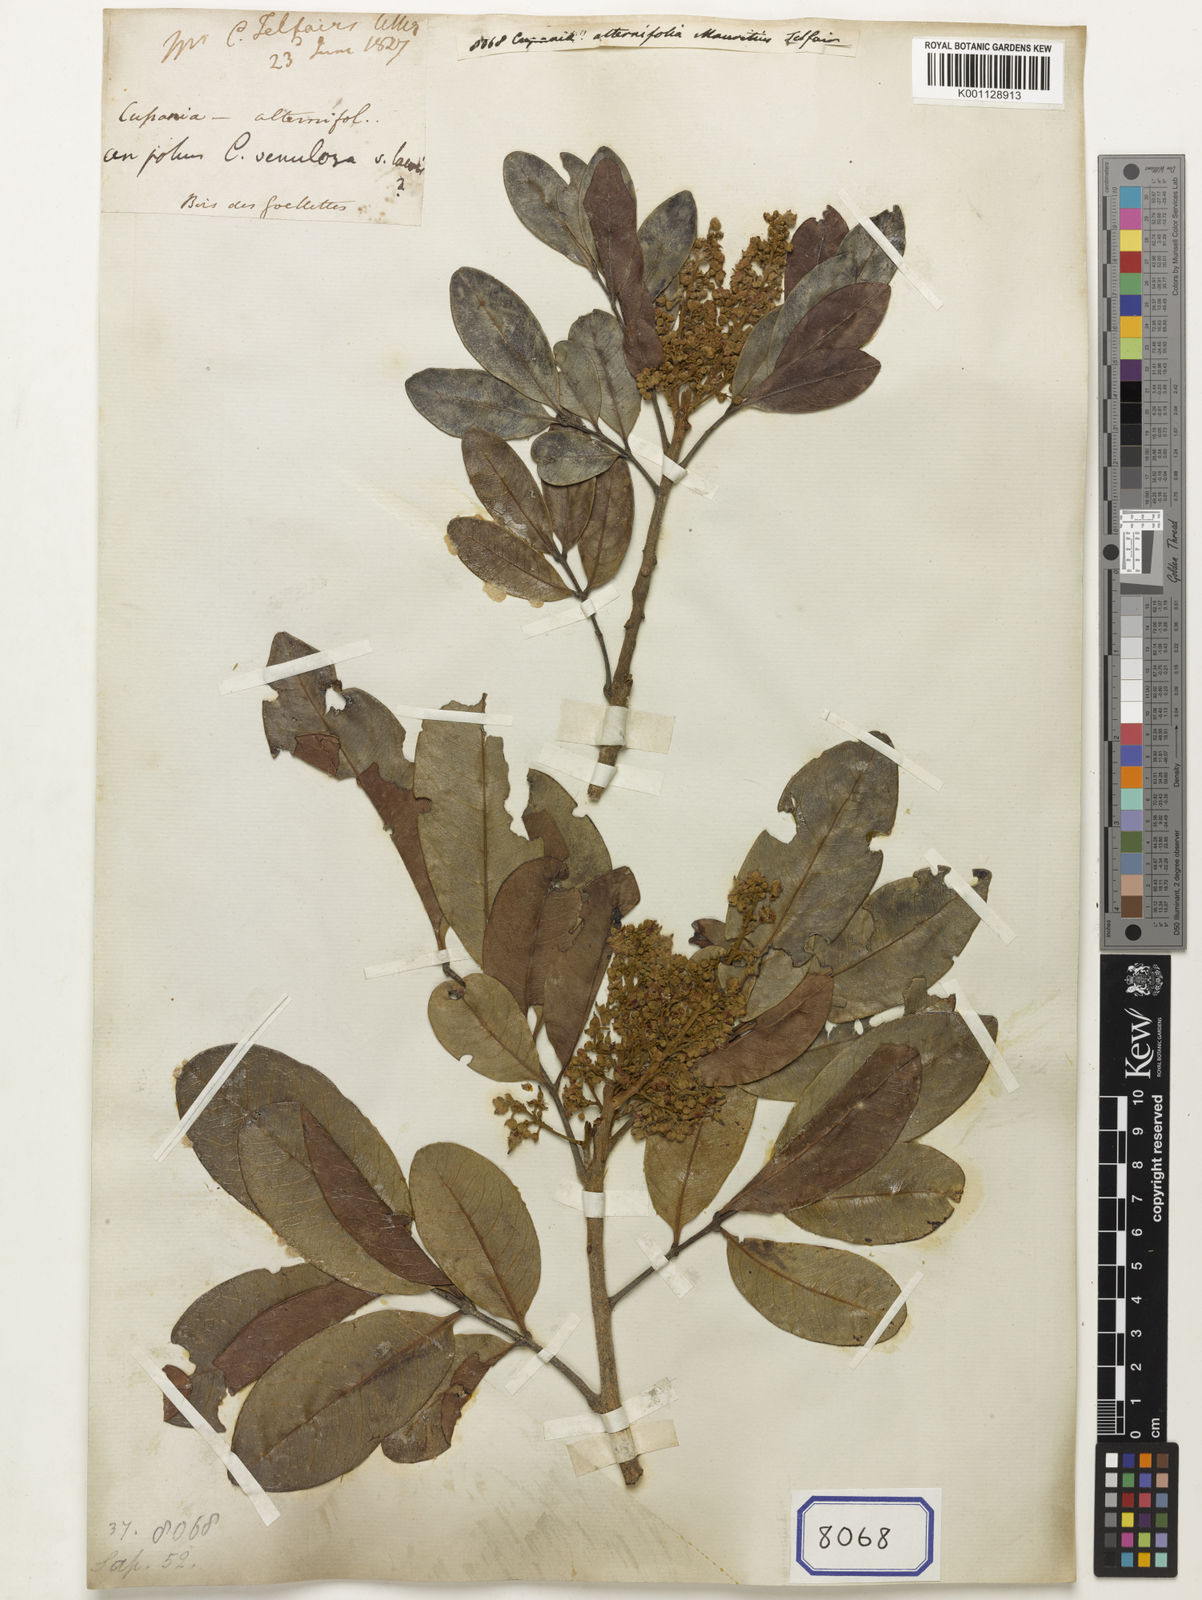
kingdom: Plantae
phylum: Tracheophyta
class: Magnoliopsida
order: Sapindales
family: Sapindaceae
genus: Molinaea
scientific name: Molinaea alternifolia
